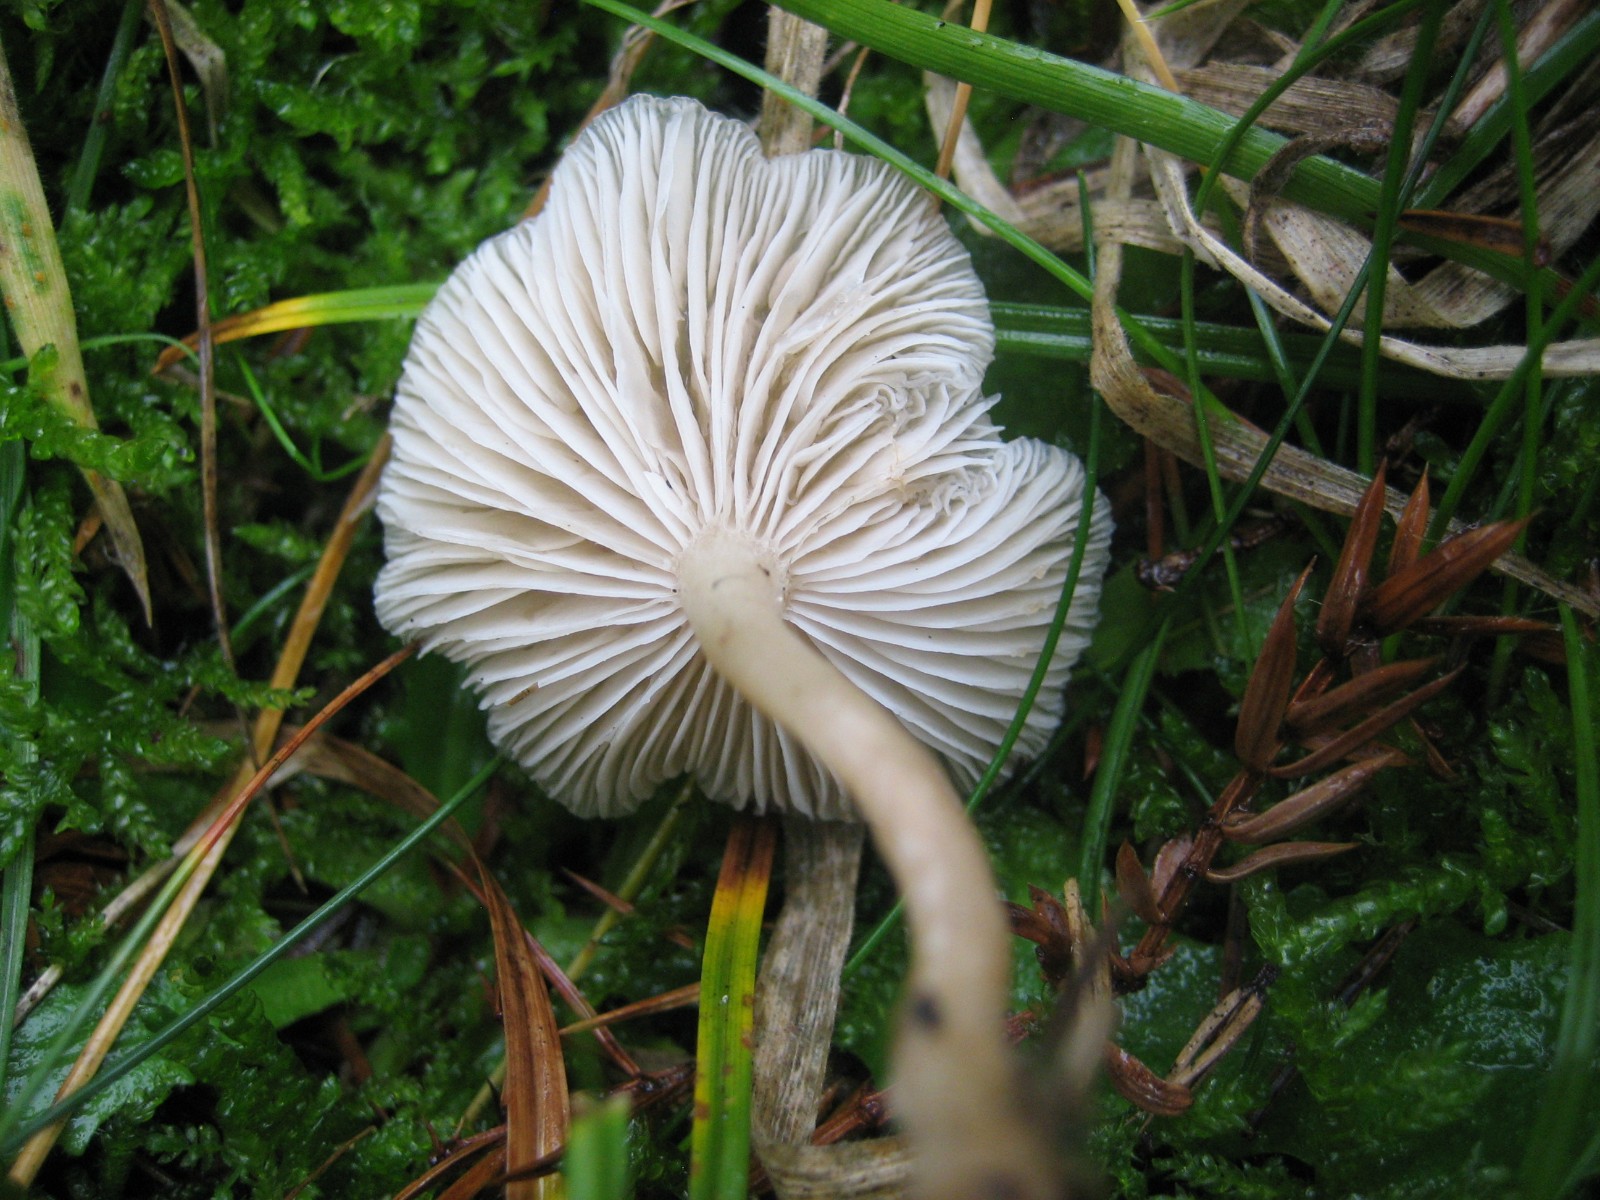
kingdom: Fungi
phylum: Basidiomycota
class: Agaricomycetes
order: Agaricales
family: Hygrophoraceae
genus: Cuphophyllus
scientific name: Cuphophyllus virgineus
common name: snehvid vokshat
